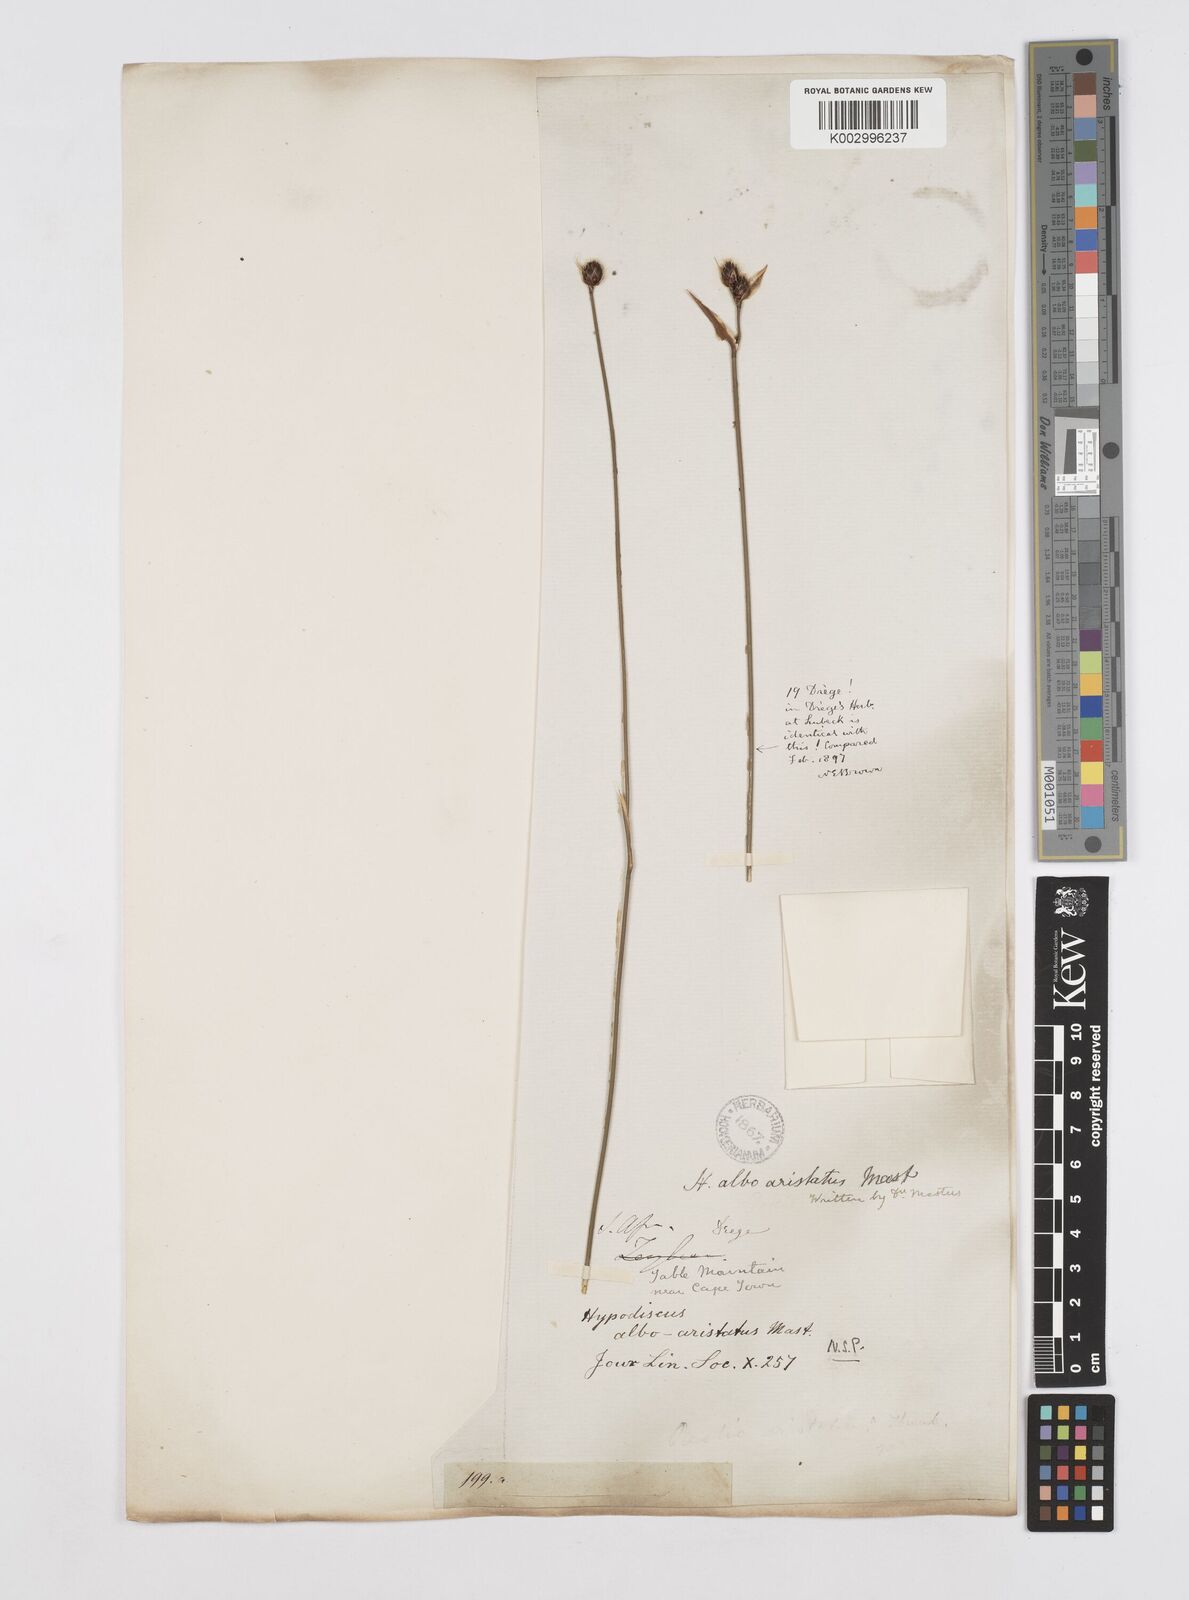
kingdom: Plantae
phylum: Tracheophyta
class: Liliopsida
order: Poales
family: Restionaceae
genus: Hypodiscus
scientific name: Hypodiscus alboaristatus
